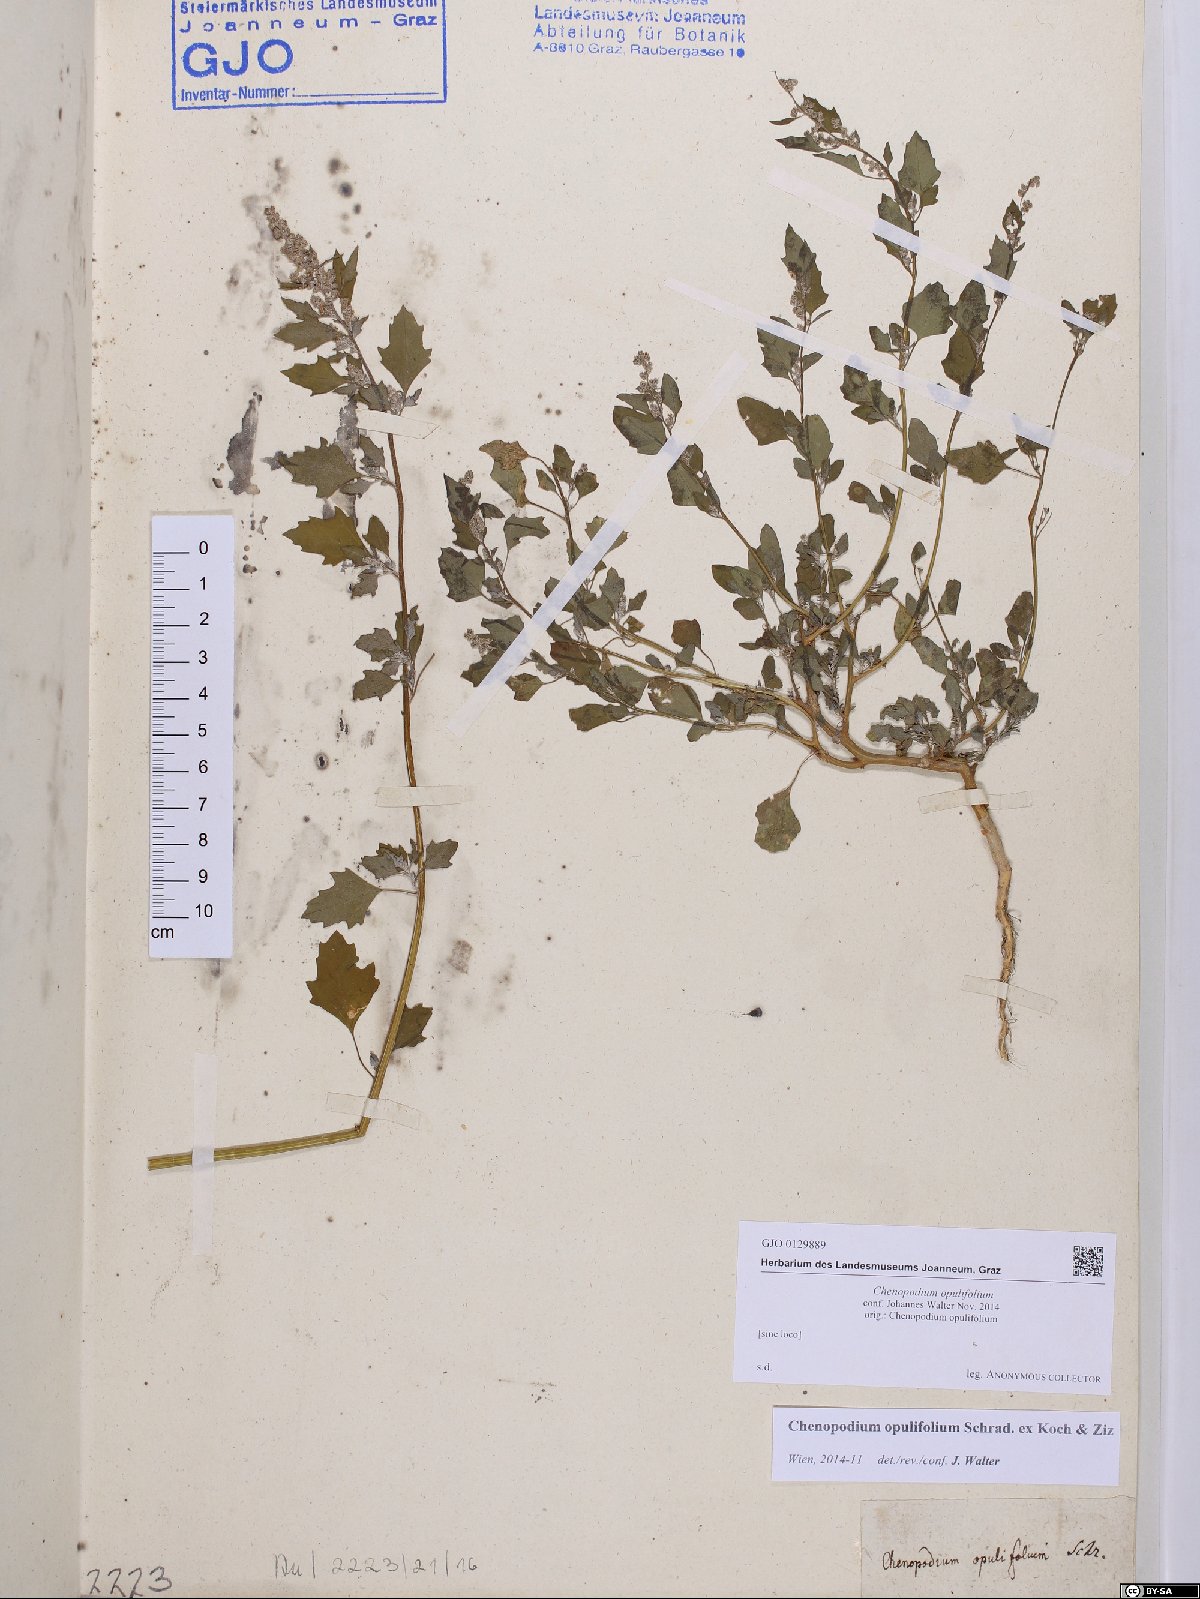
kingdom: Plantae
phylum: Tracheophyta
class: Magnoliopsida
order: Caryophyllales
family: Amaranthaceae
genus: Chenopodium
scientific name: Chenopodium opulifolium
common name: Grey goosefoot
